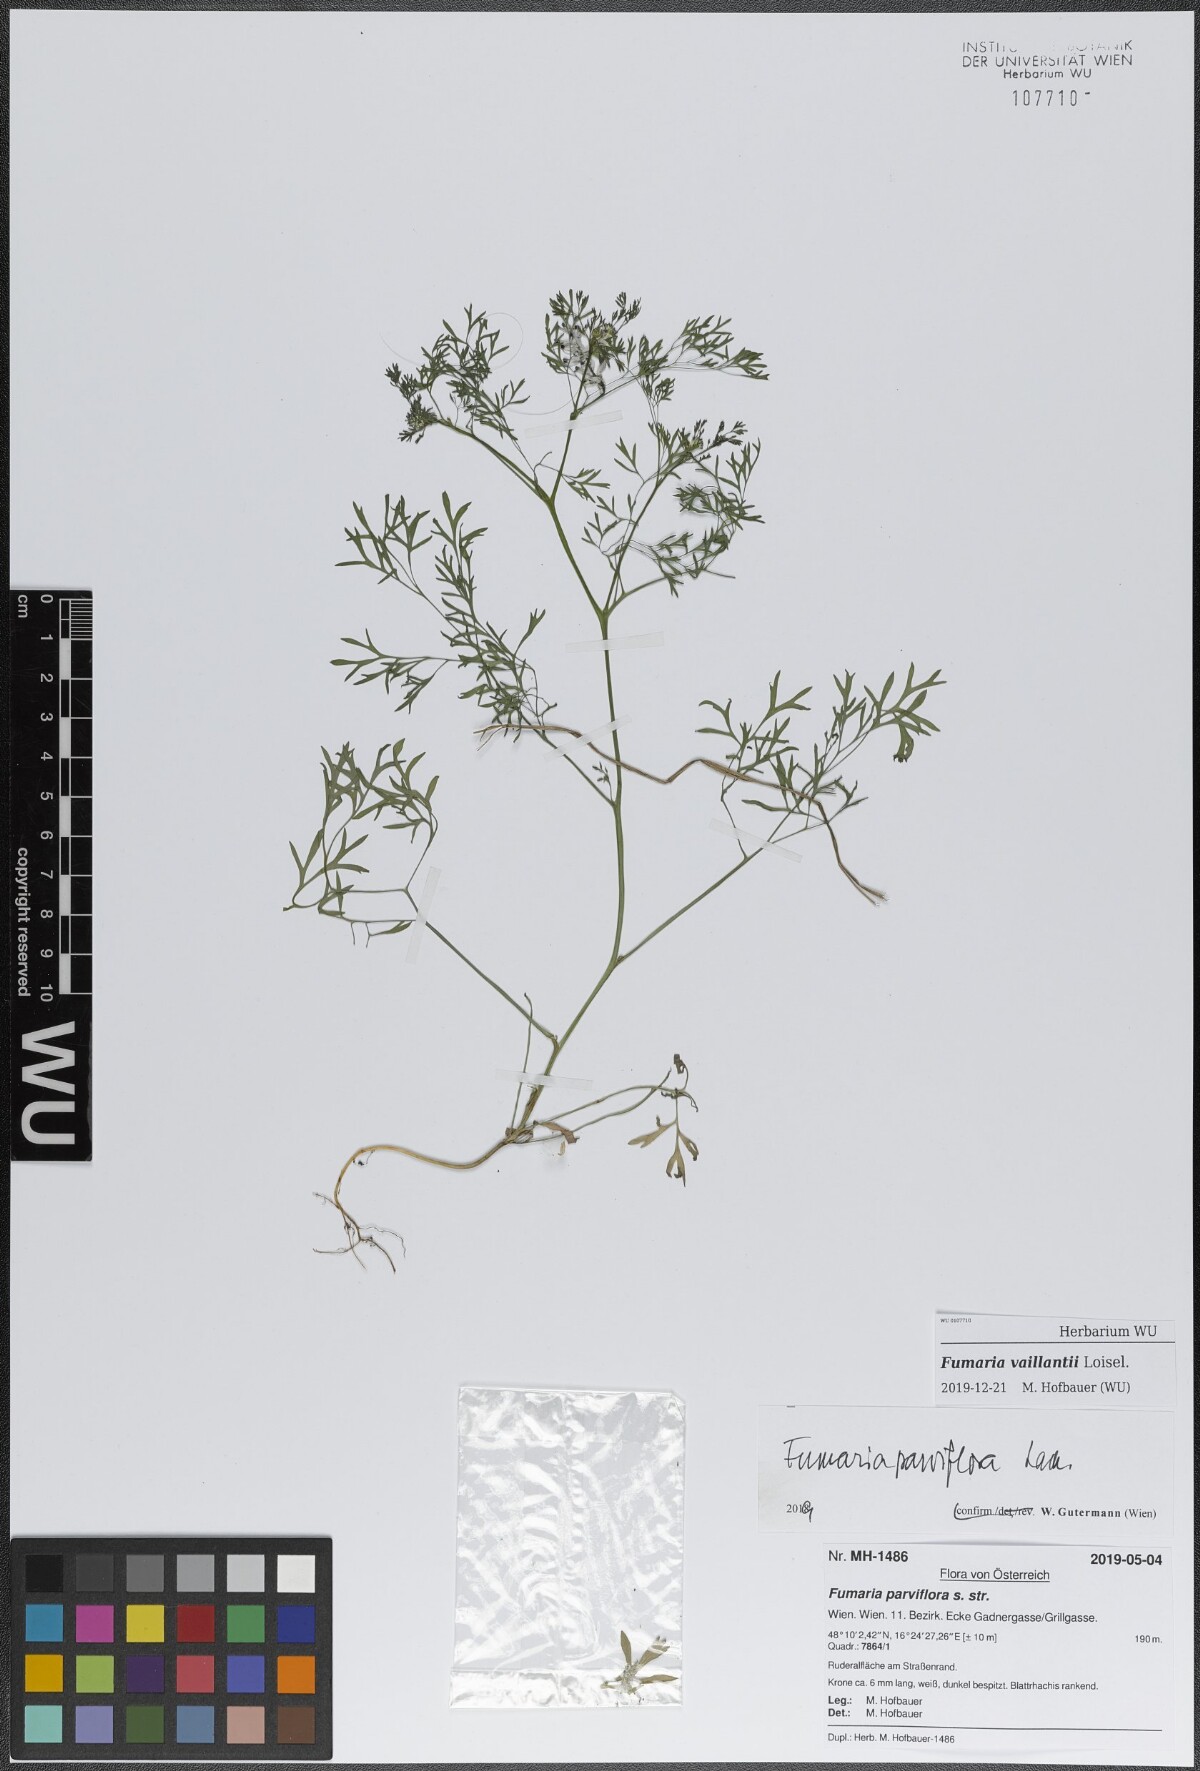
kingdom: Plantae
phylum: Tracheophyta
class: Magnoliopsida
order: Ranunculales
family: Papaveraceae
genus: Fumaria
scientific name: Fumaria vaillantii
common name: Few-flowered fumitory
